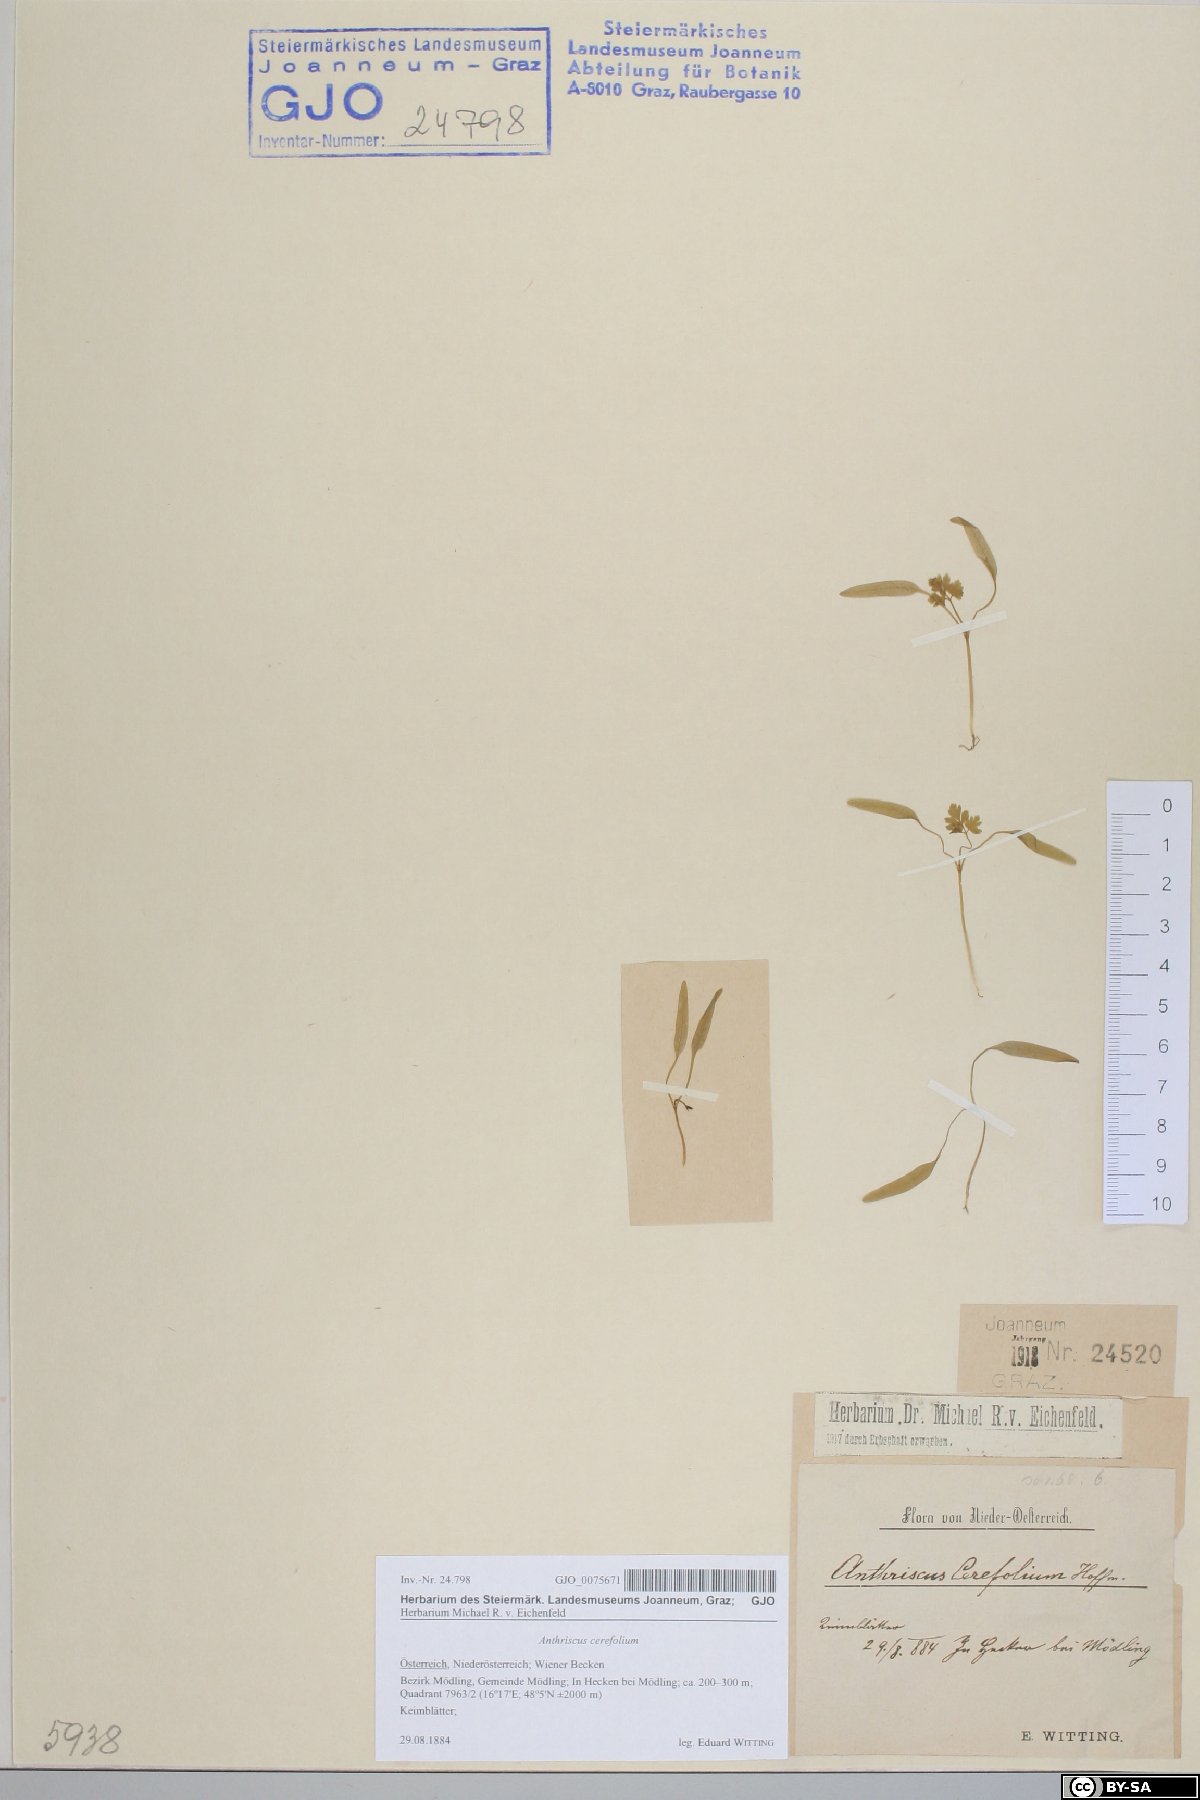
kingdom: Plantae
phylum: Tracheophyta
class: Magnoliopsida
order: Apiales
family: Apiaceae
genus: Anthriscus
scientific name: Anthriscus cerefolium
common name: Garden chervil
